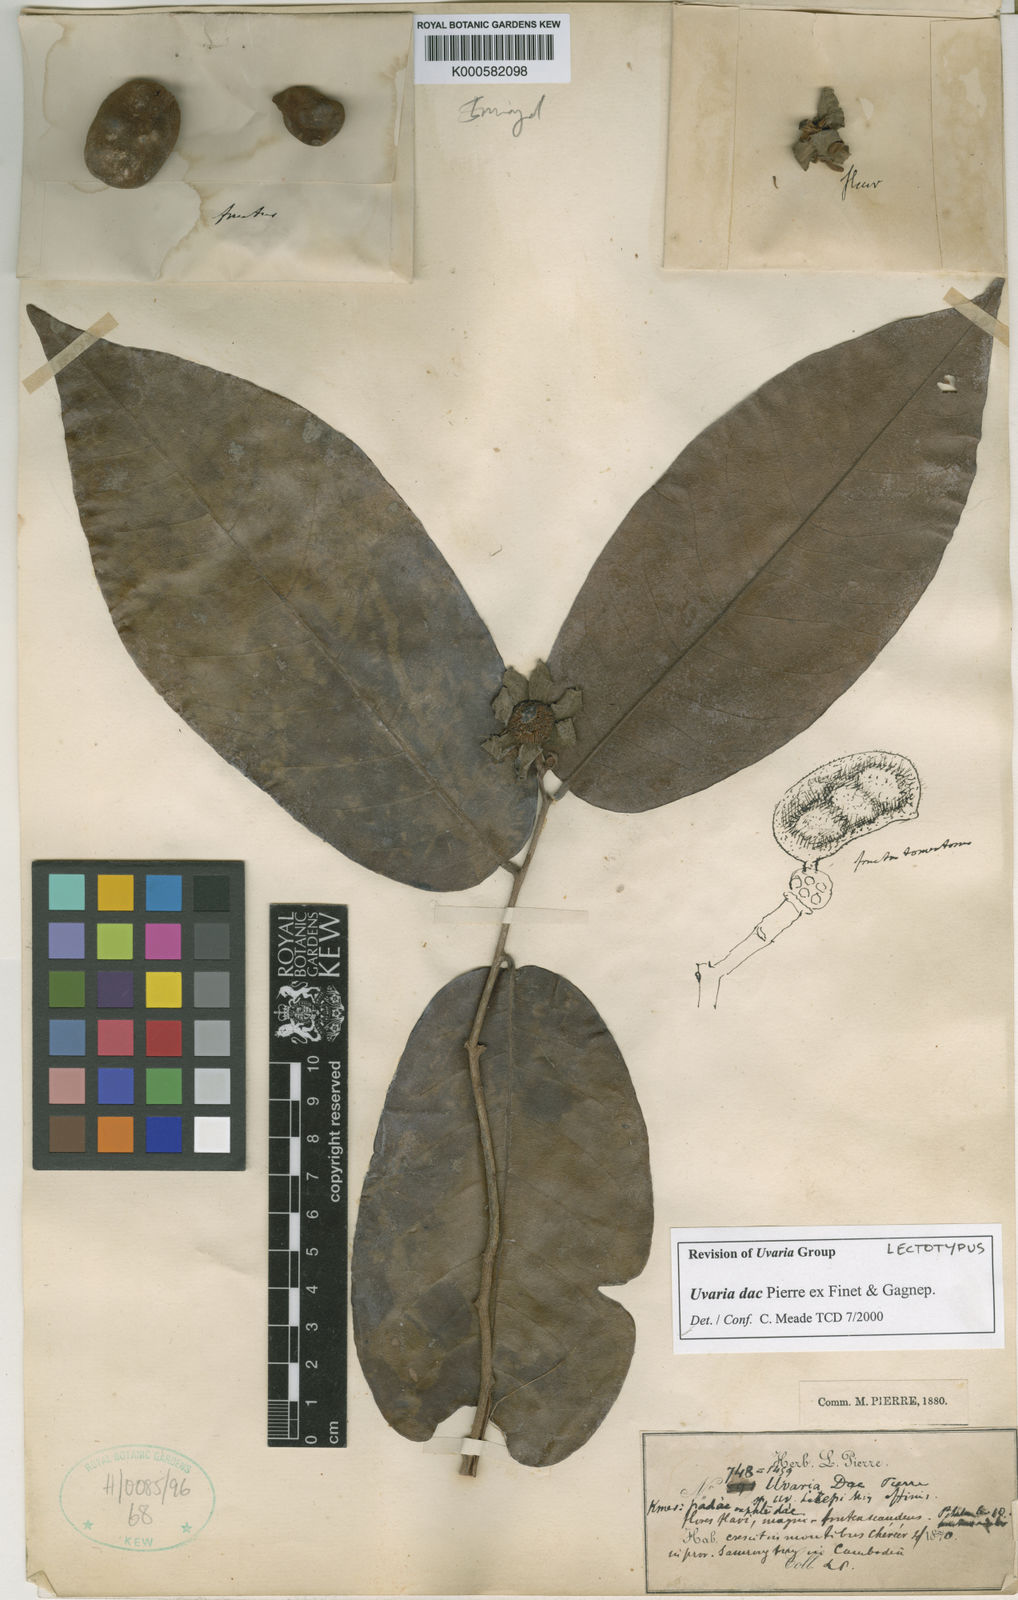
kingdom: Plantae
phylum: Tracheophyta
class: Magnoliopsida
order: Magnoliales
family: Annonaceae
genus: Uvaria
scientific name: Uvaria dac
